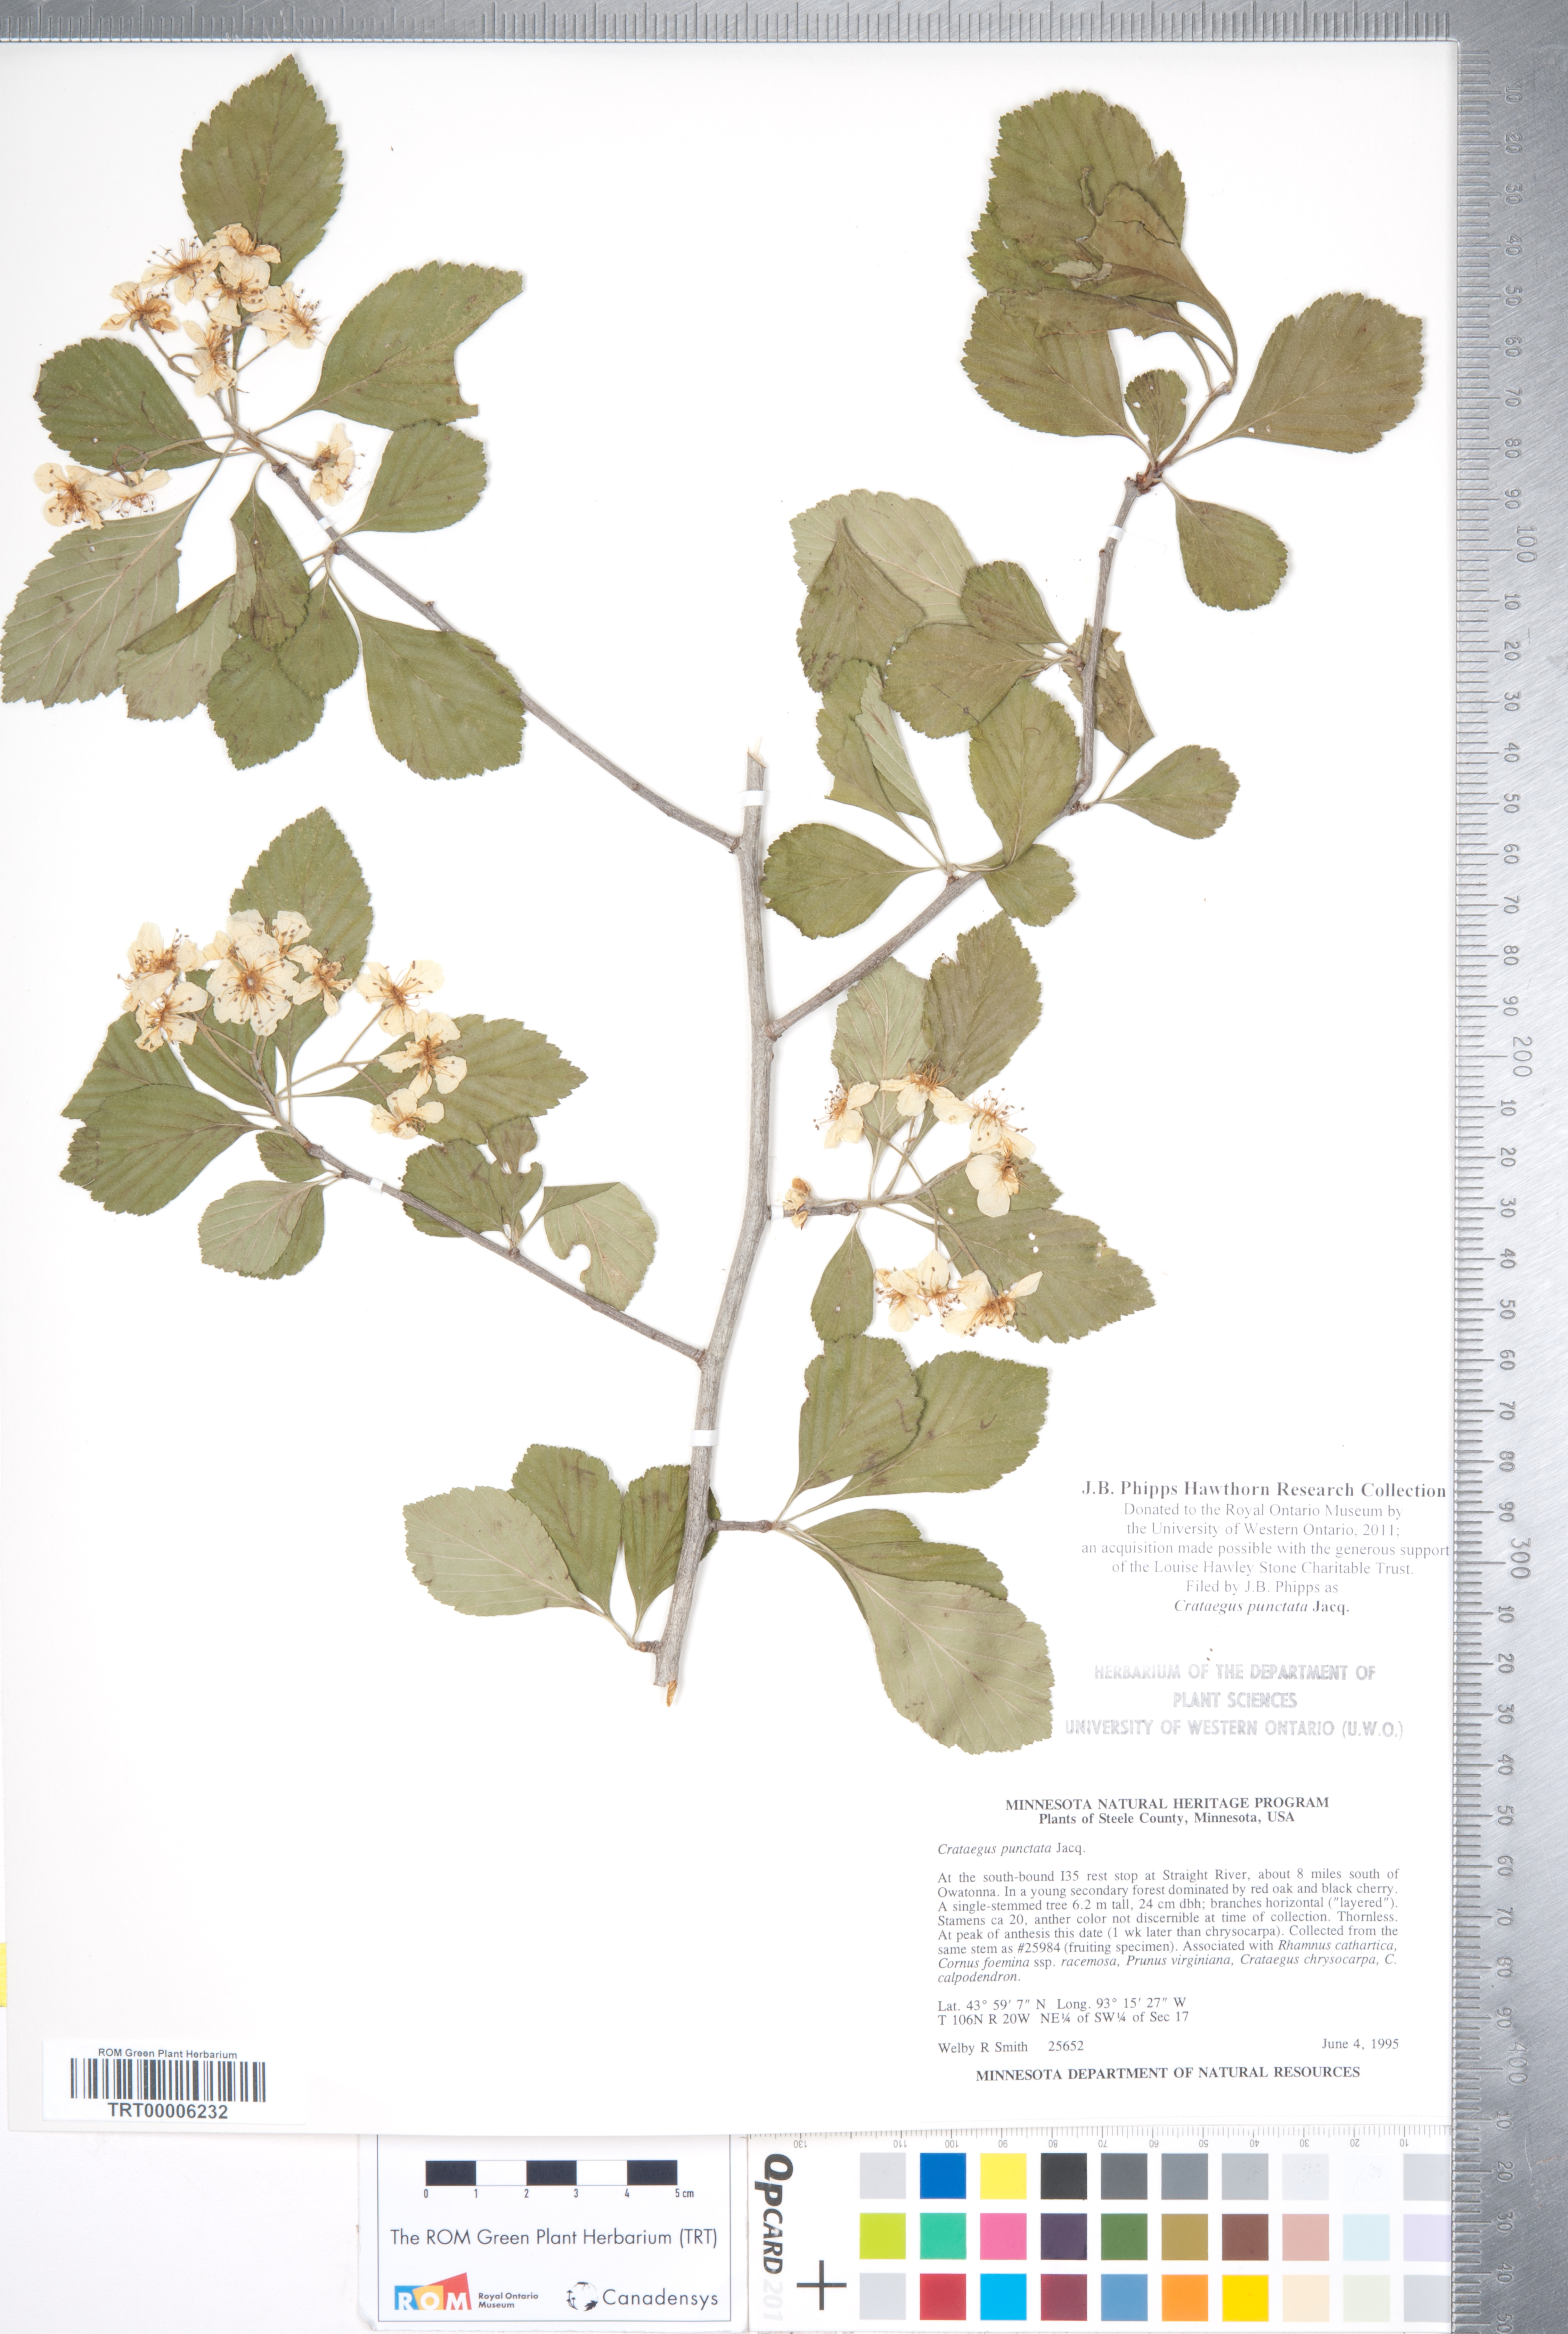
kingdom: Plantae
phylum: Tracheophyta
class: Magnoliopsida
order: Rosales
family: Rosaceae
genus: Crataegus
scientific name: Crataegus punctata
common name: Dotted hawthorn
